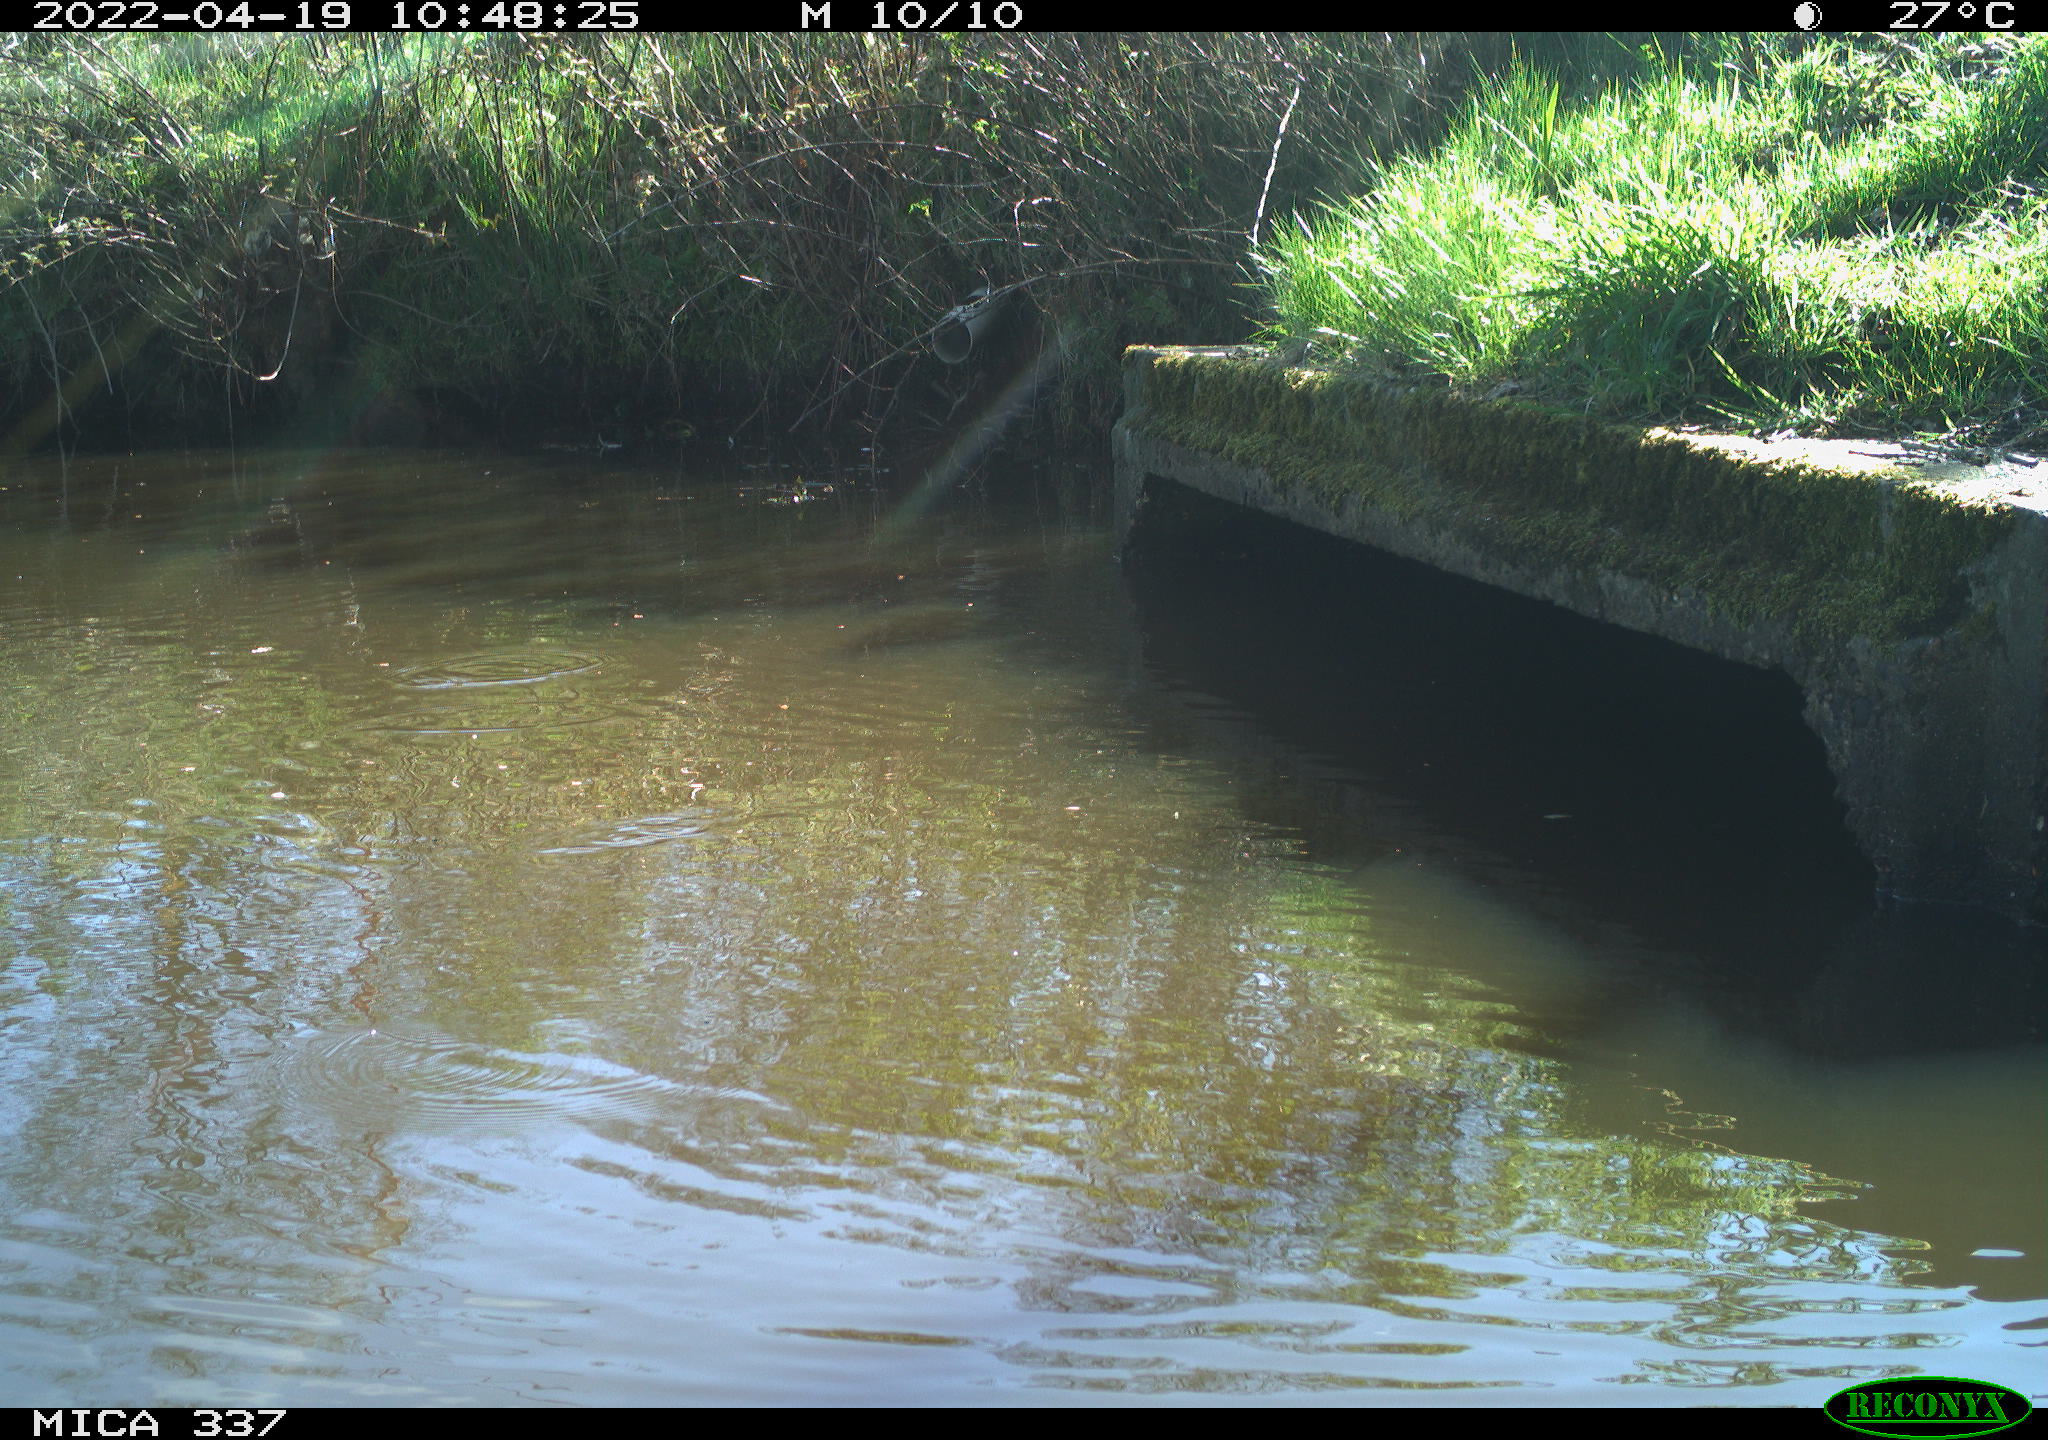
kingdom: Animalia
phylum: Chordata
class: Aves
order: Gruiformes
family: Rallidae
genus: Gallinula
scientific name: Gallinula chloropus
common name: Common moorhen
